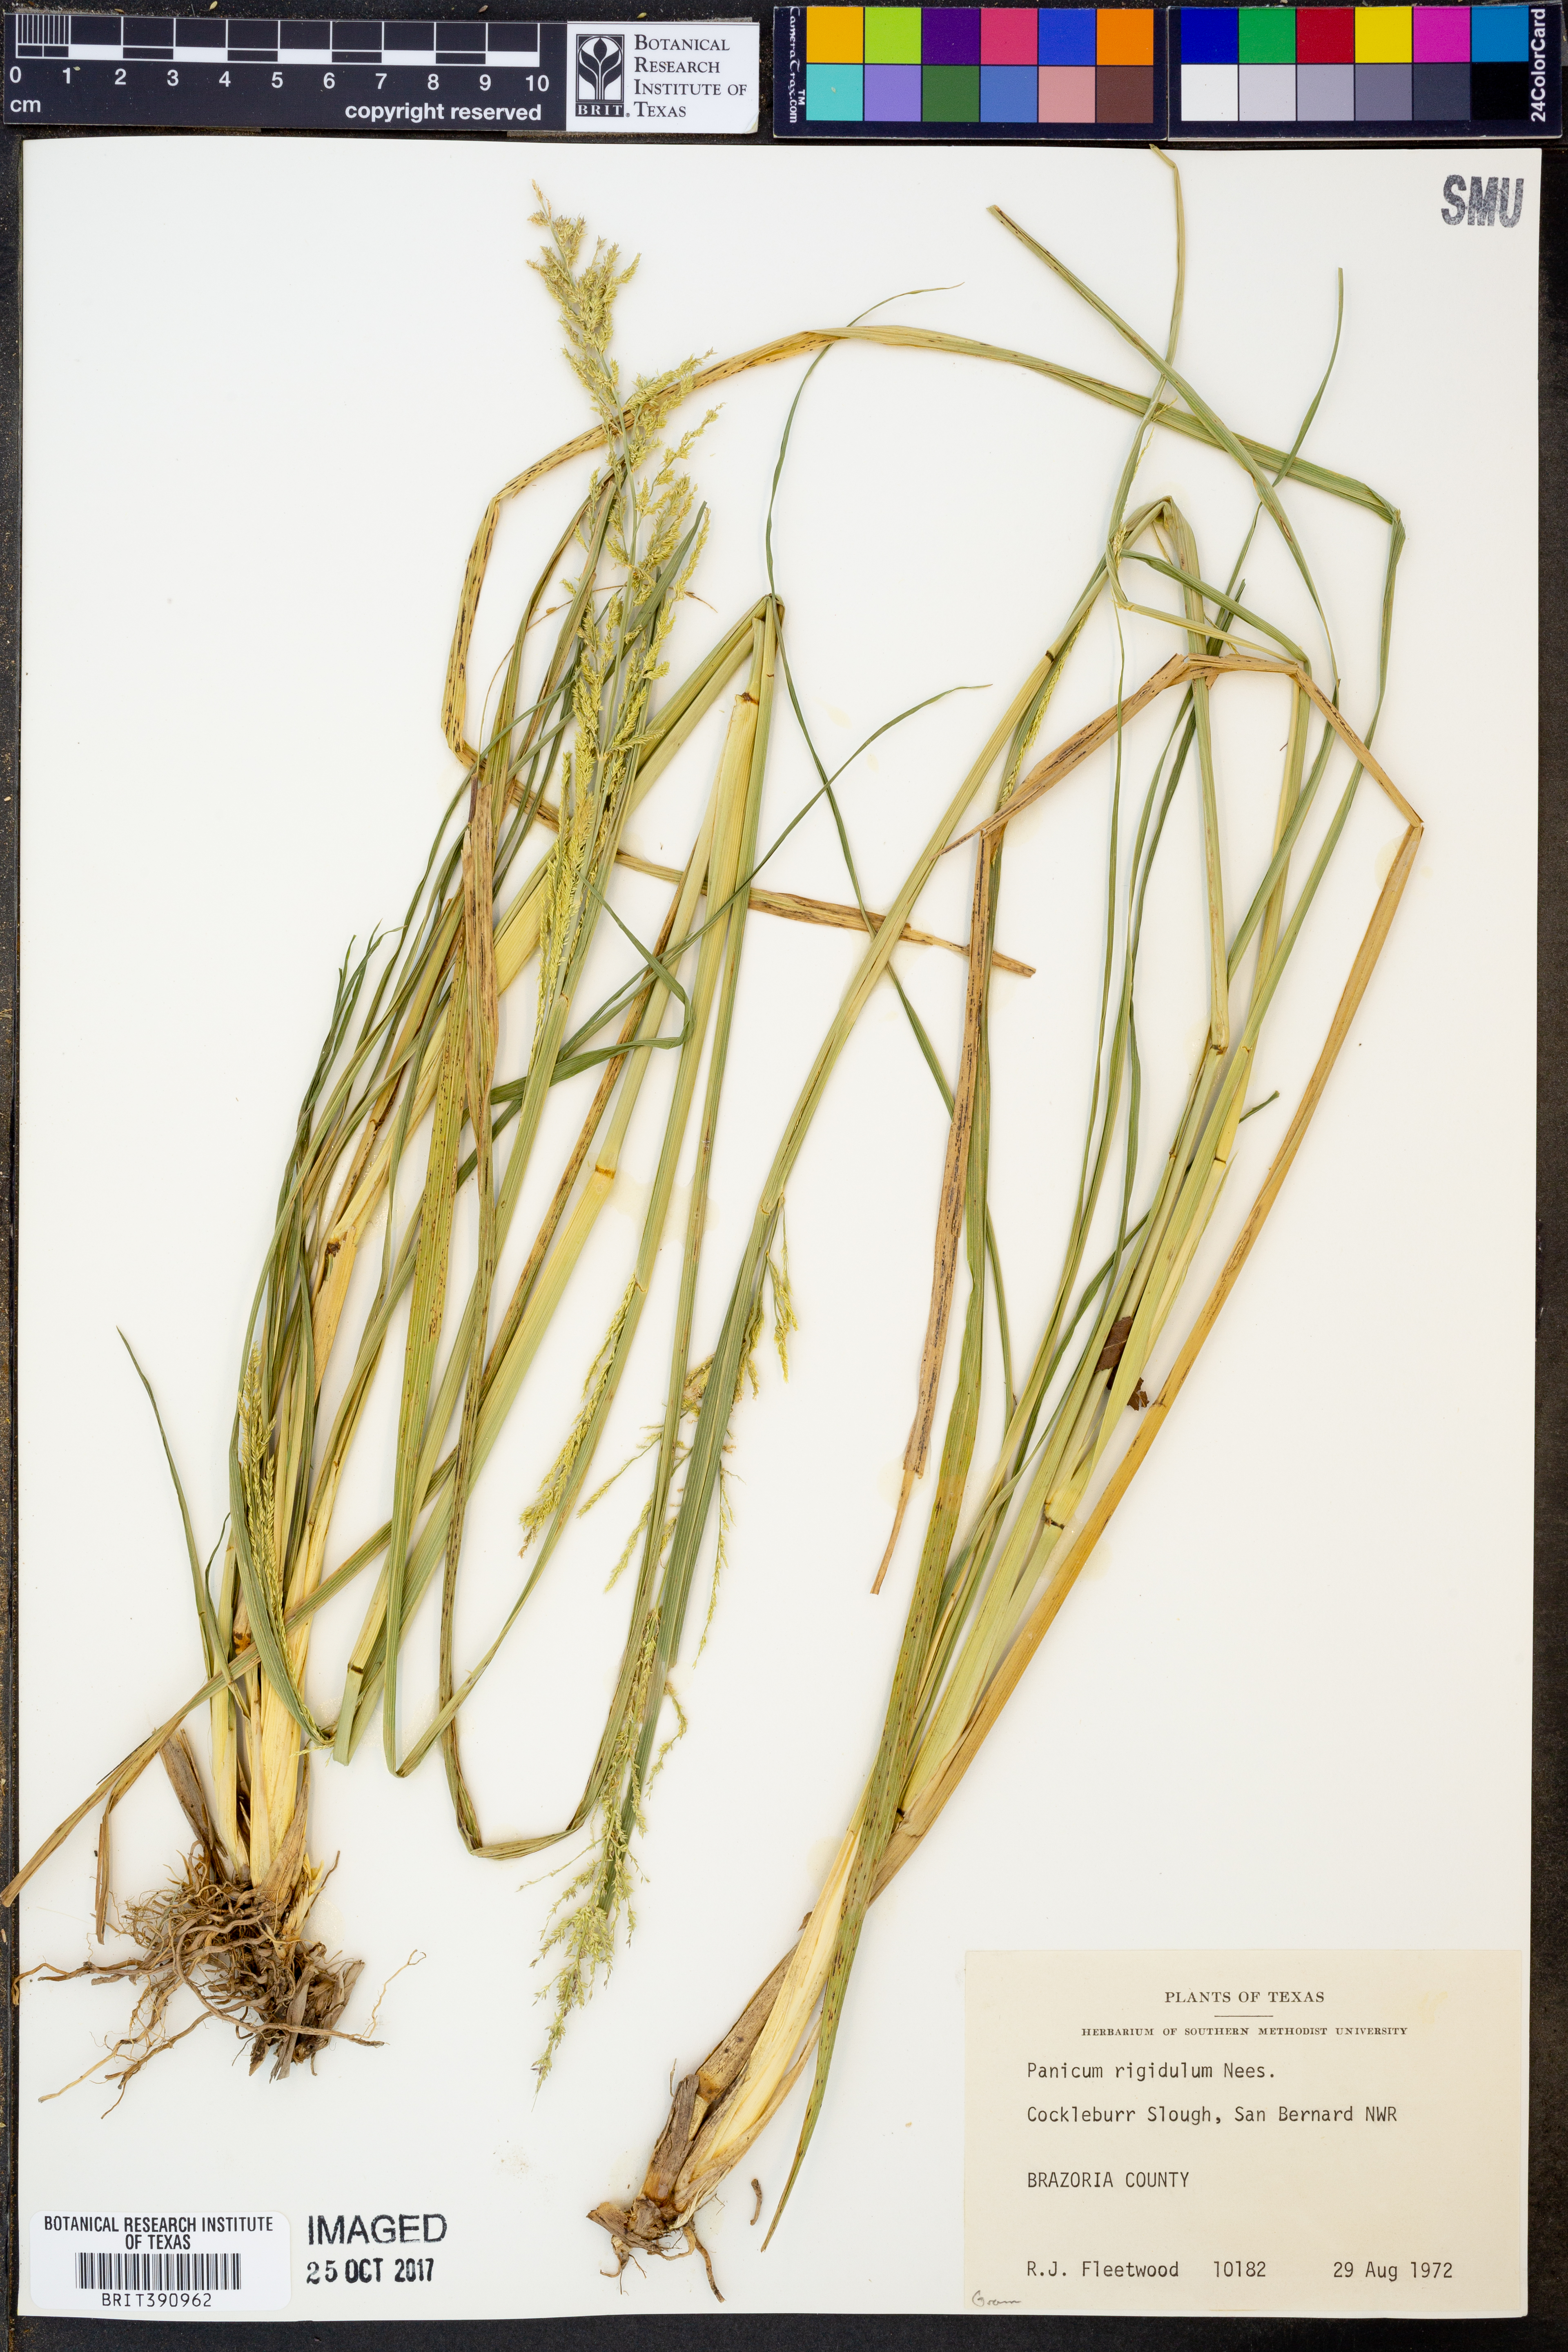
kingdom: Plantae
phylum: Tracheophyta
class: Liliopsida
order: Poales
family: Poaceae
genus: Coleataenia
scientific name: Coleataenia rigidula
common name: Redtop panicgrass
